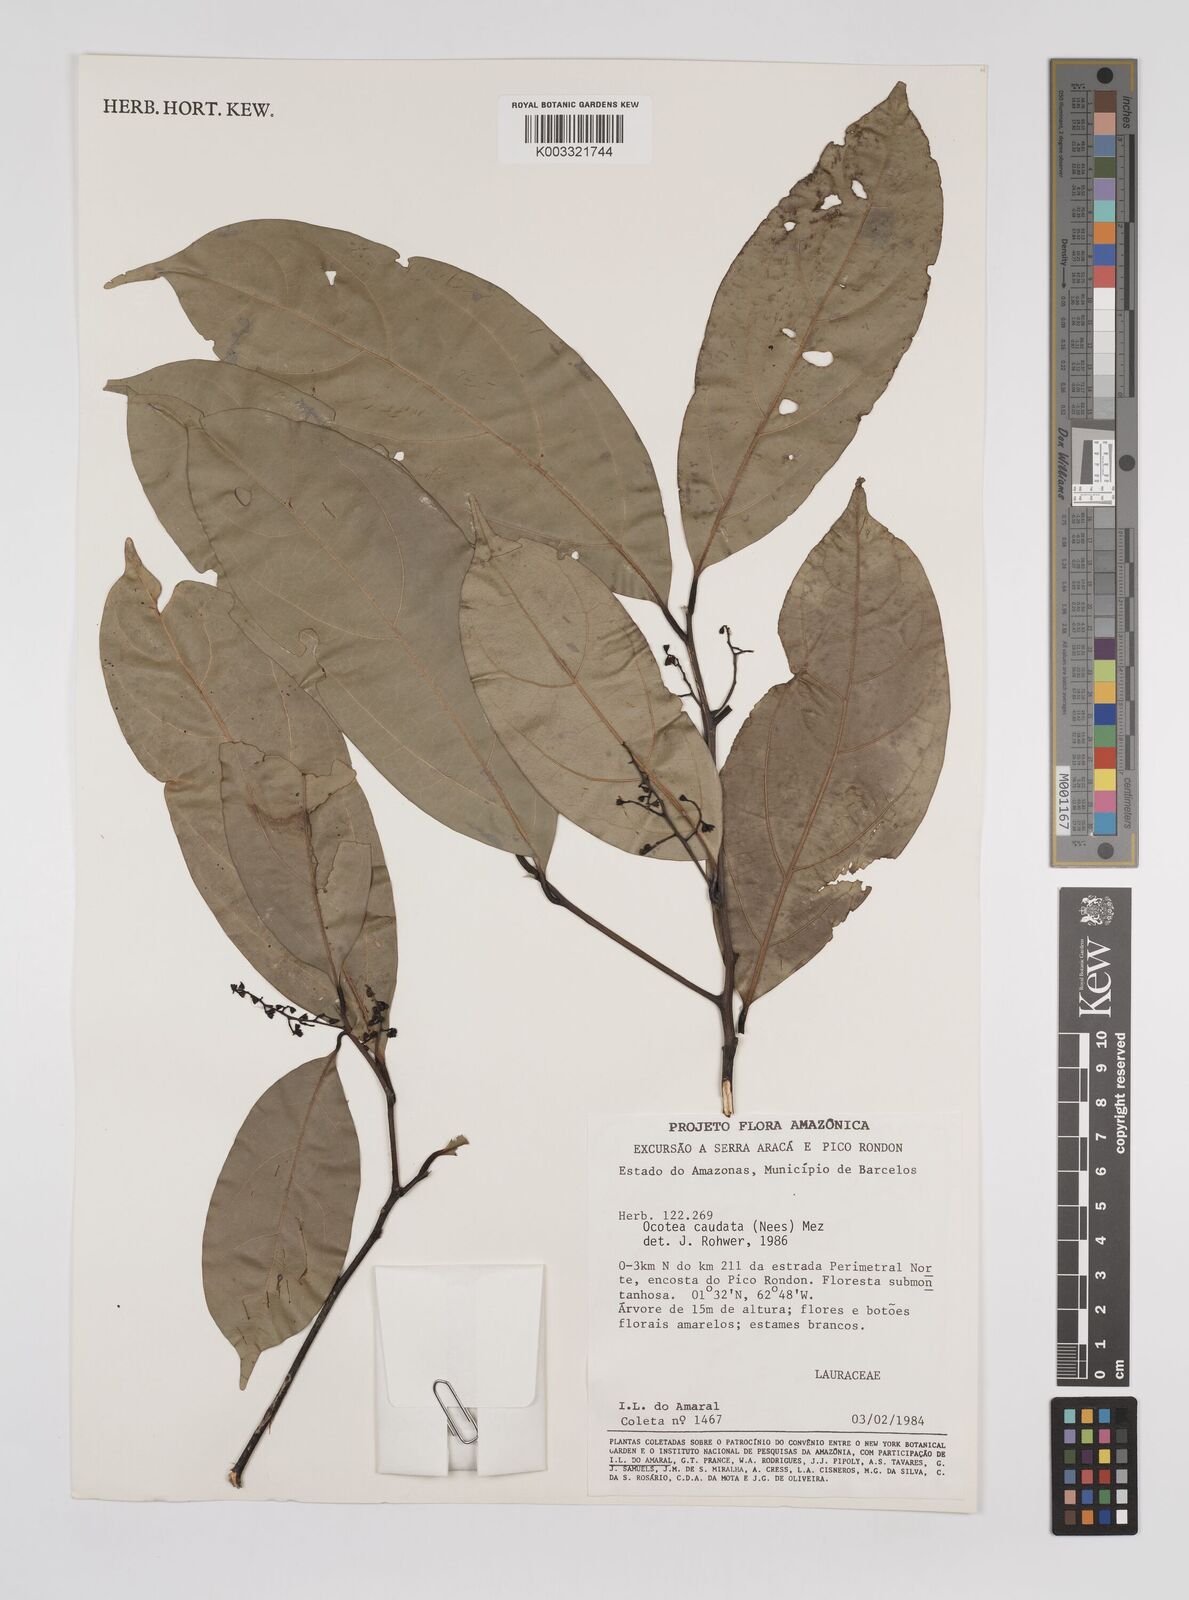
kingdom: Plantae
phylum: Tracheophyta
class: Magnoliopsida
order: Laurales
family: Lauraceae
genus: Ocotea
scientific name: Ocotea leptobotra
